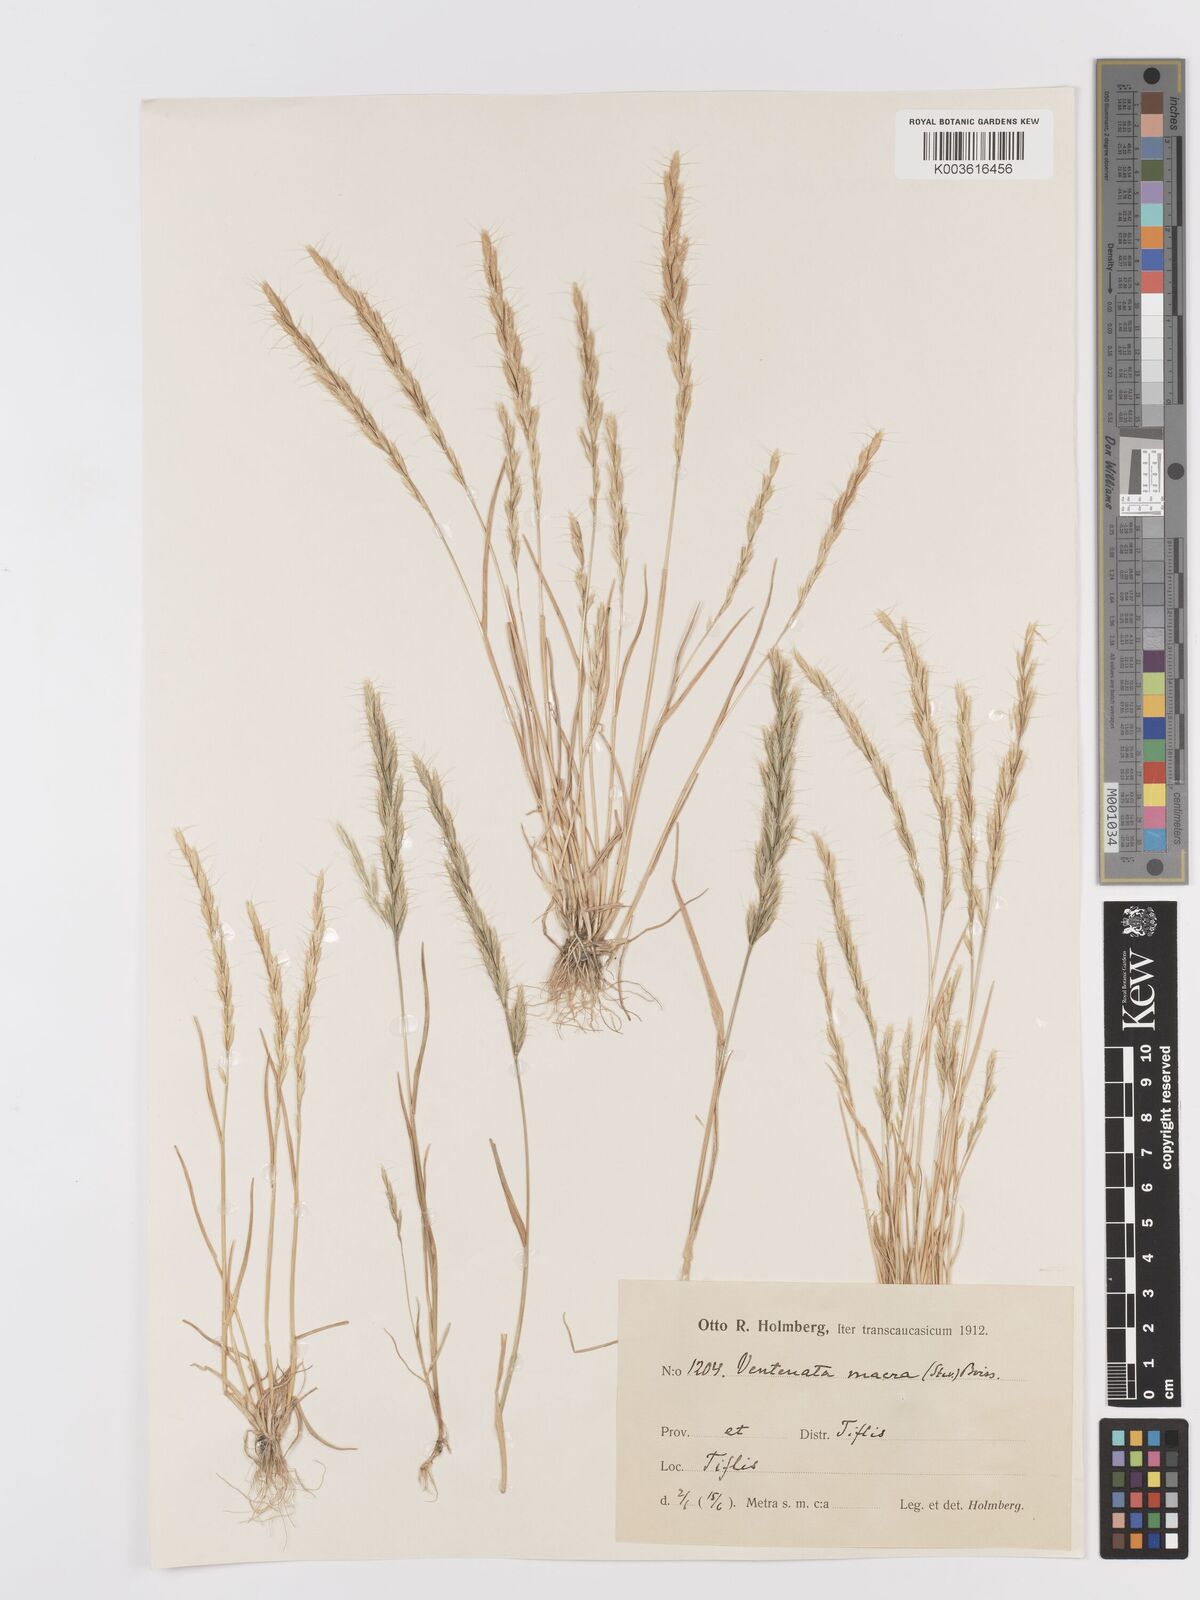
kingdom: Plantae
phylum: Tracheophyta
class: Liliopsida
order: Poales
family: Poaceae
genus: Ventenata
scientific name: Ventenata macra
